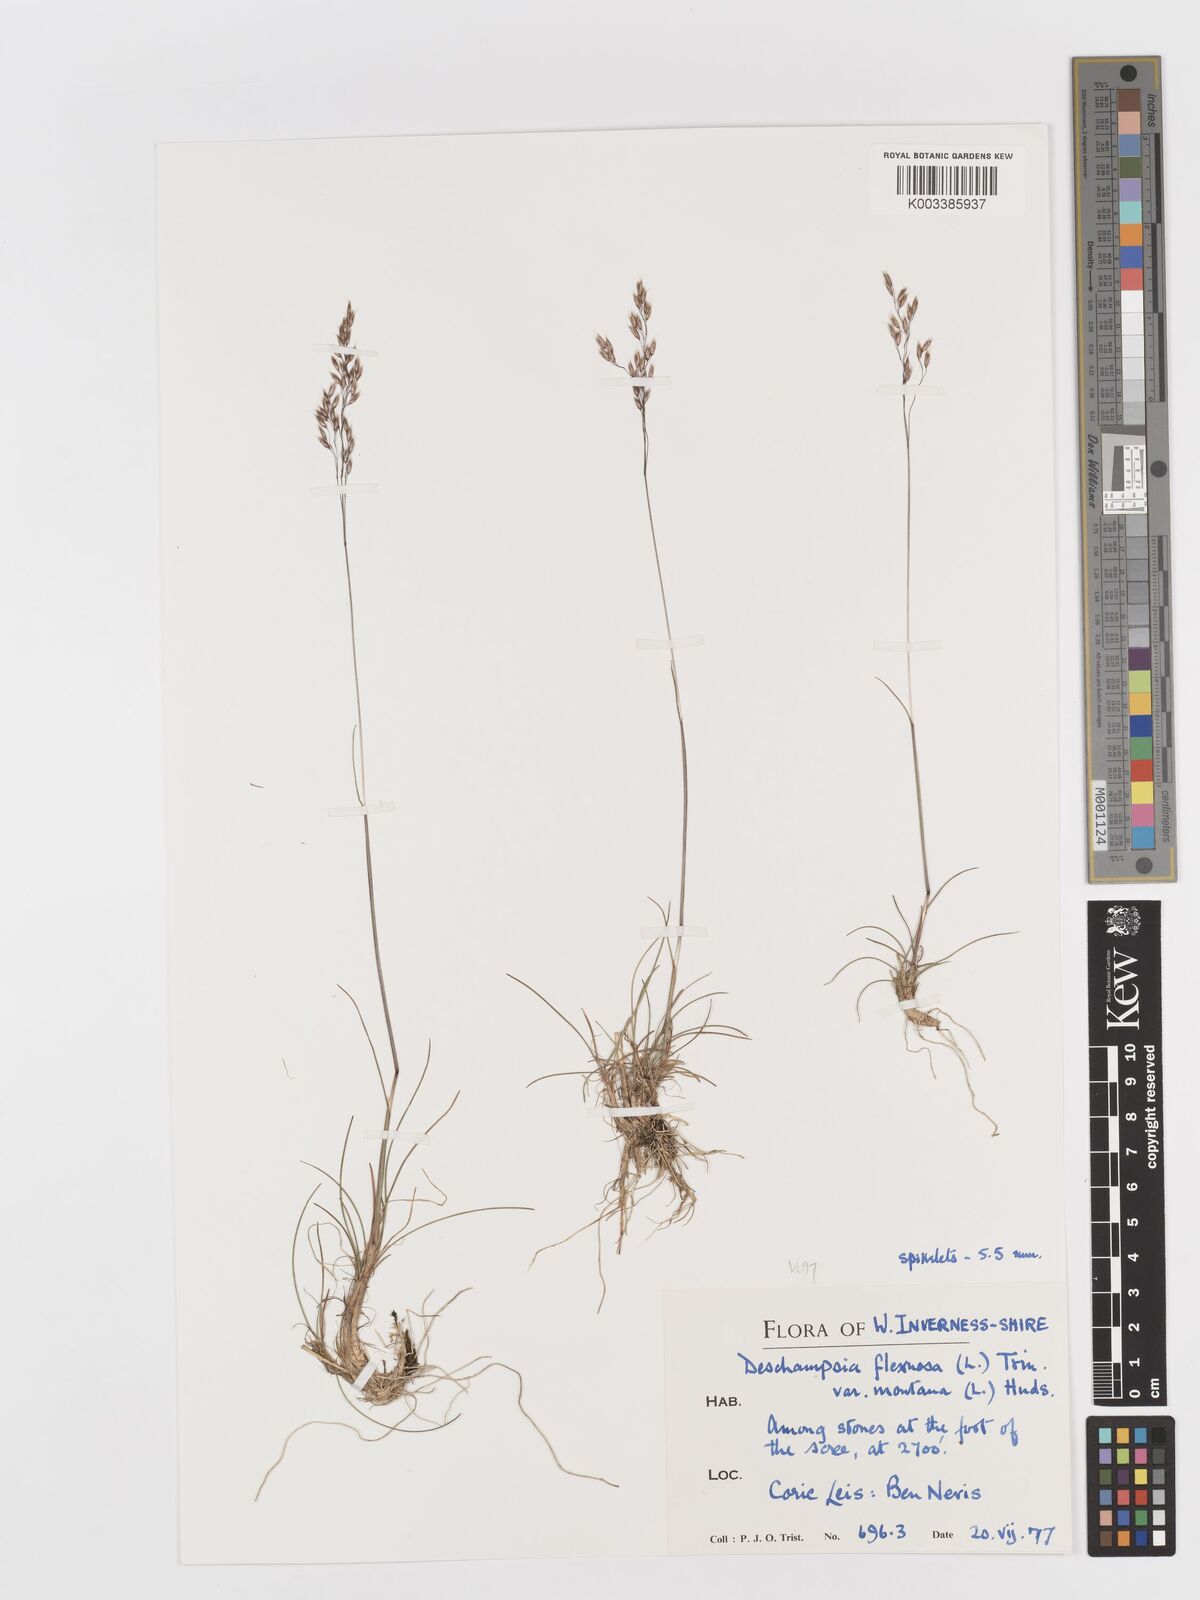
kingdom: Plantae
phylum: Tracheophyta
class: Liliopsida
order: Poales
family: Poaceae
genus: Avenella
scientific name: Avenella flexuosa
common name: Wavy hairgrass
